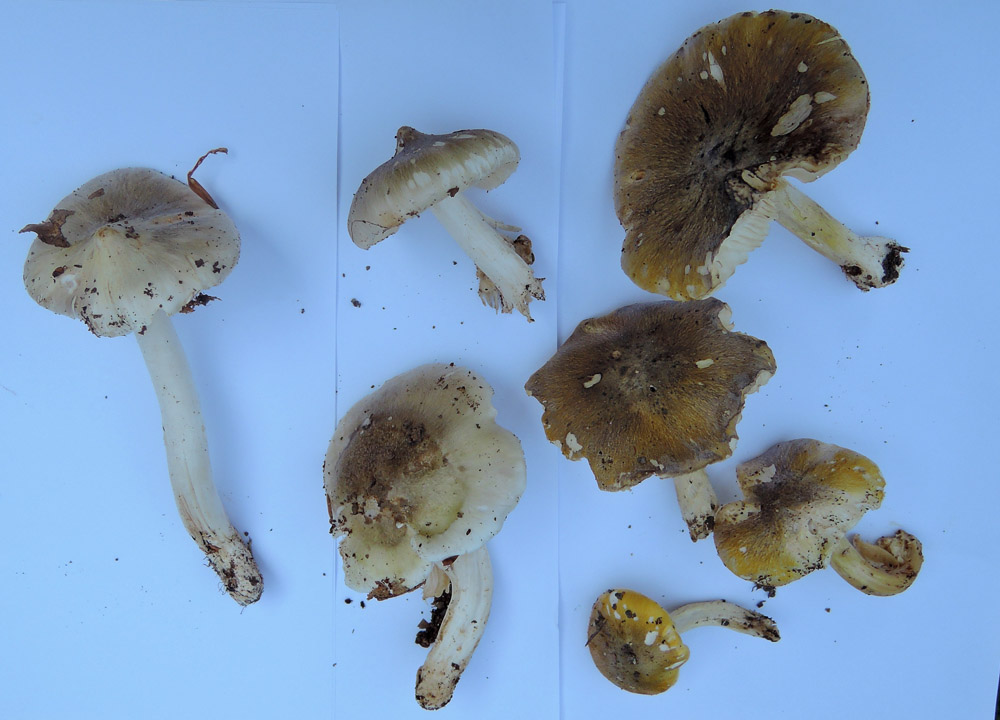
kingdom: Fungi
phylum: Basidiomycota
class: Agaricomycetes
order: Agaricales
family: Tricholomataceae
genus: Tricholoma
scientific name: Tricholoma sejunctum
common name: grøngul ridderhat
